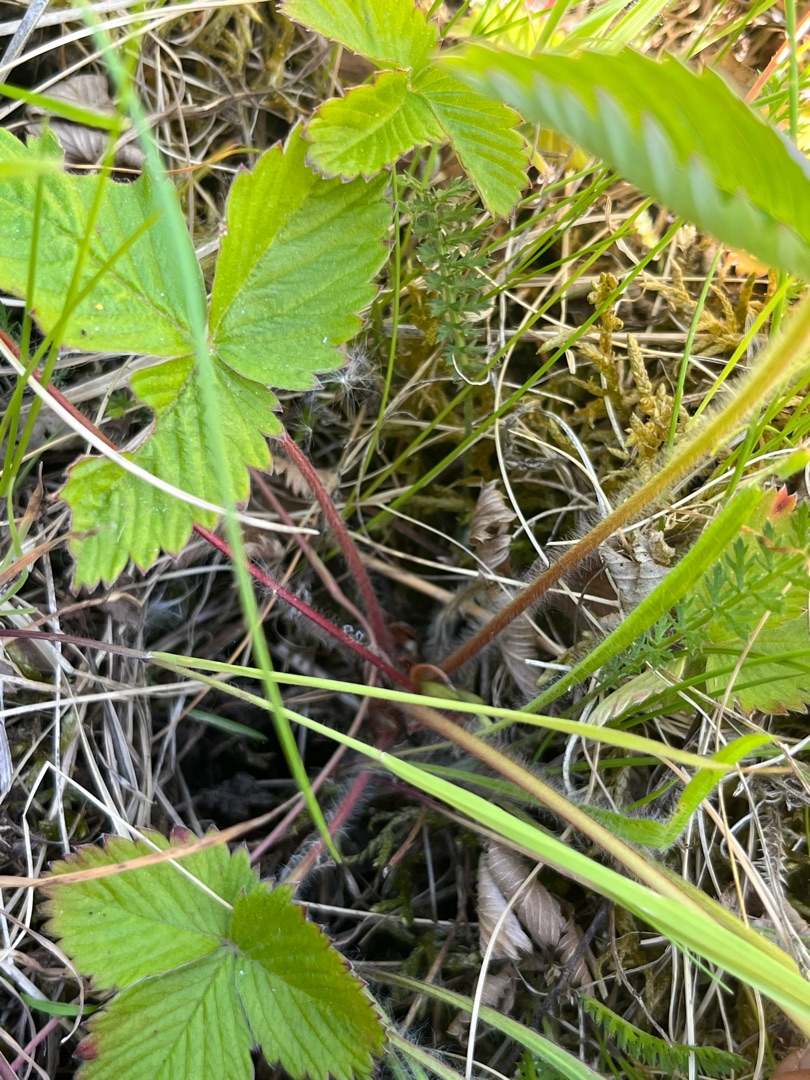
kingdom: Plantae
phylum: Tracheophyta
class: Magnoliopsida
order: Rosales
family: Rosaceae
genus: Fragaria
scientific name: Fragaria vesca
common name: Skov-jordbær
